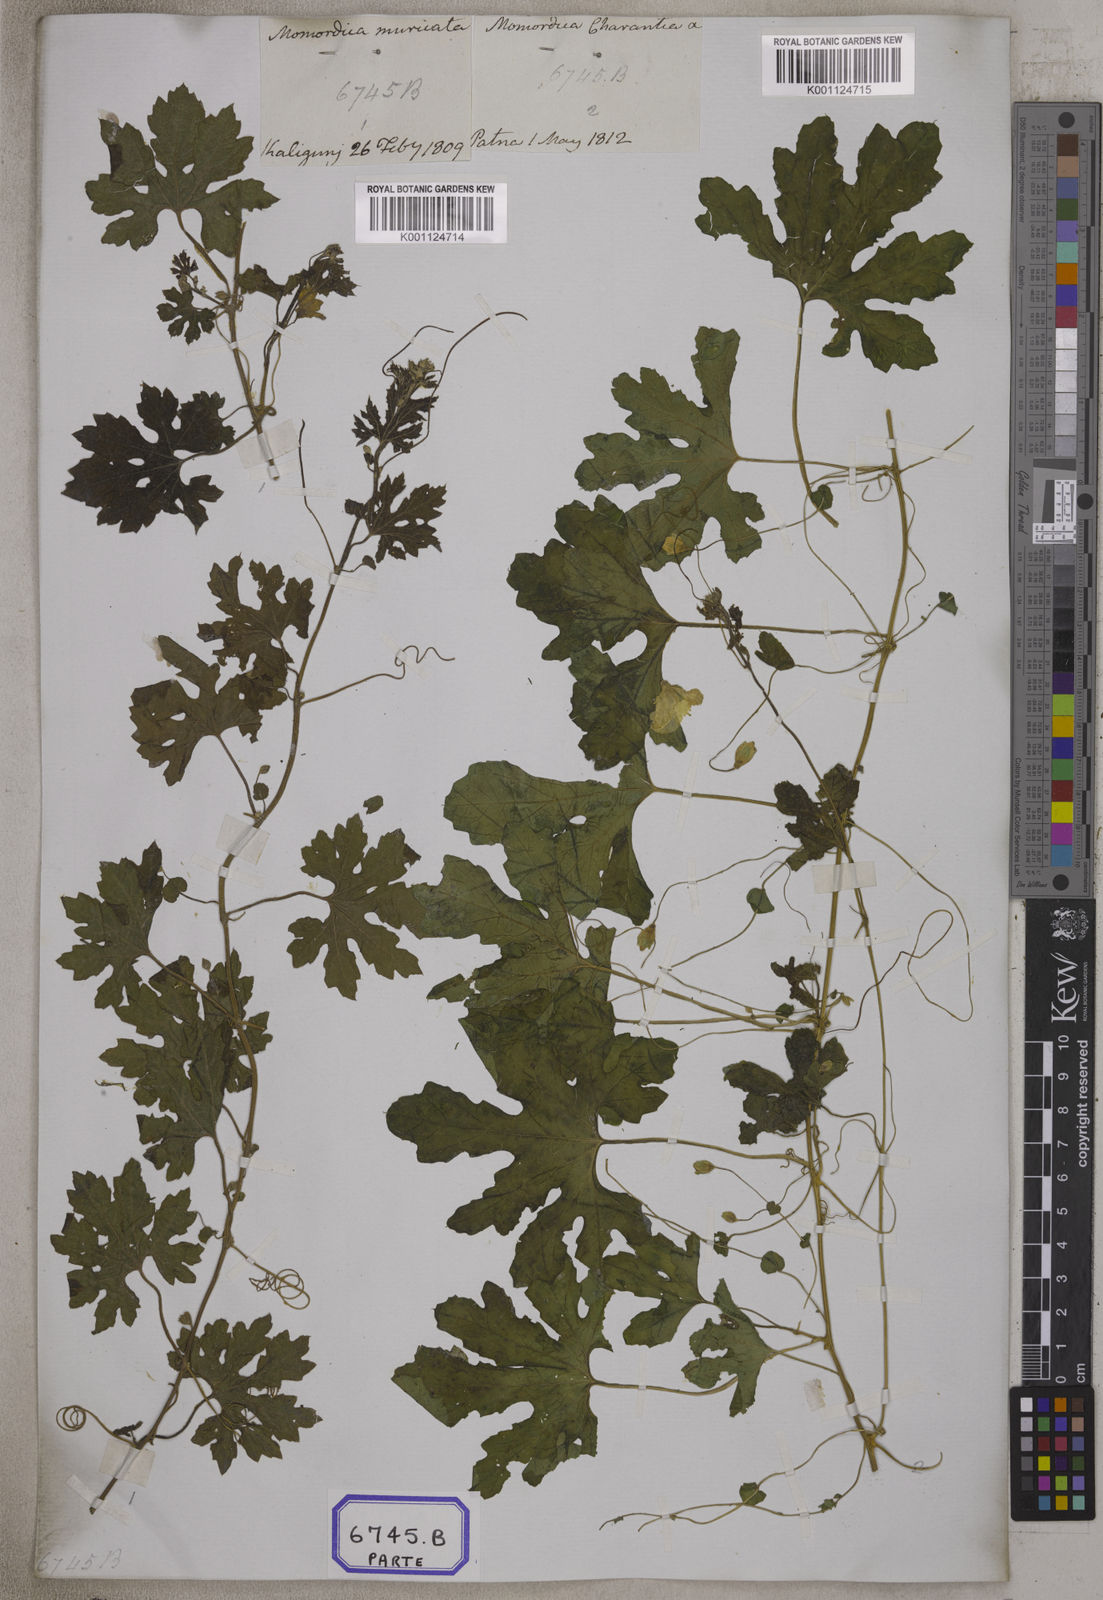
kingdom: Plantae
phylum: Tracheophyta
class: Magnoliopsida
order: Cucurbitales
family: Cucurbitaceae
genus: Momordica
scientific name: Momordica
